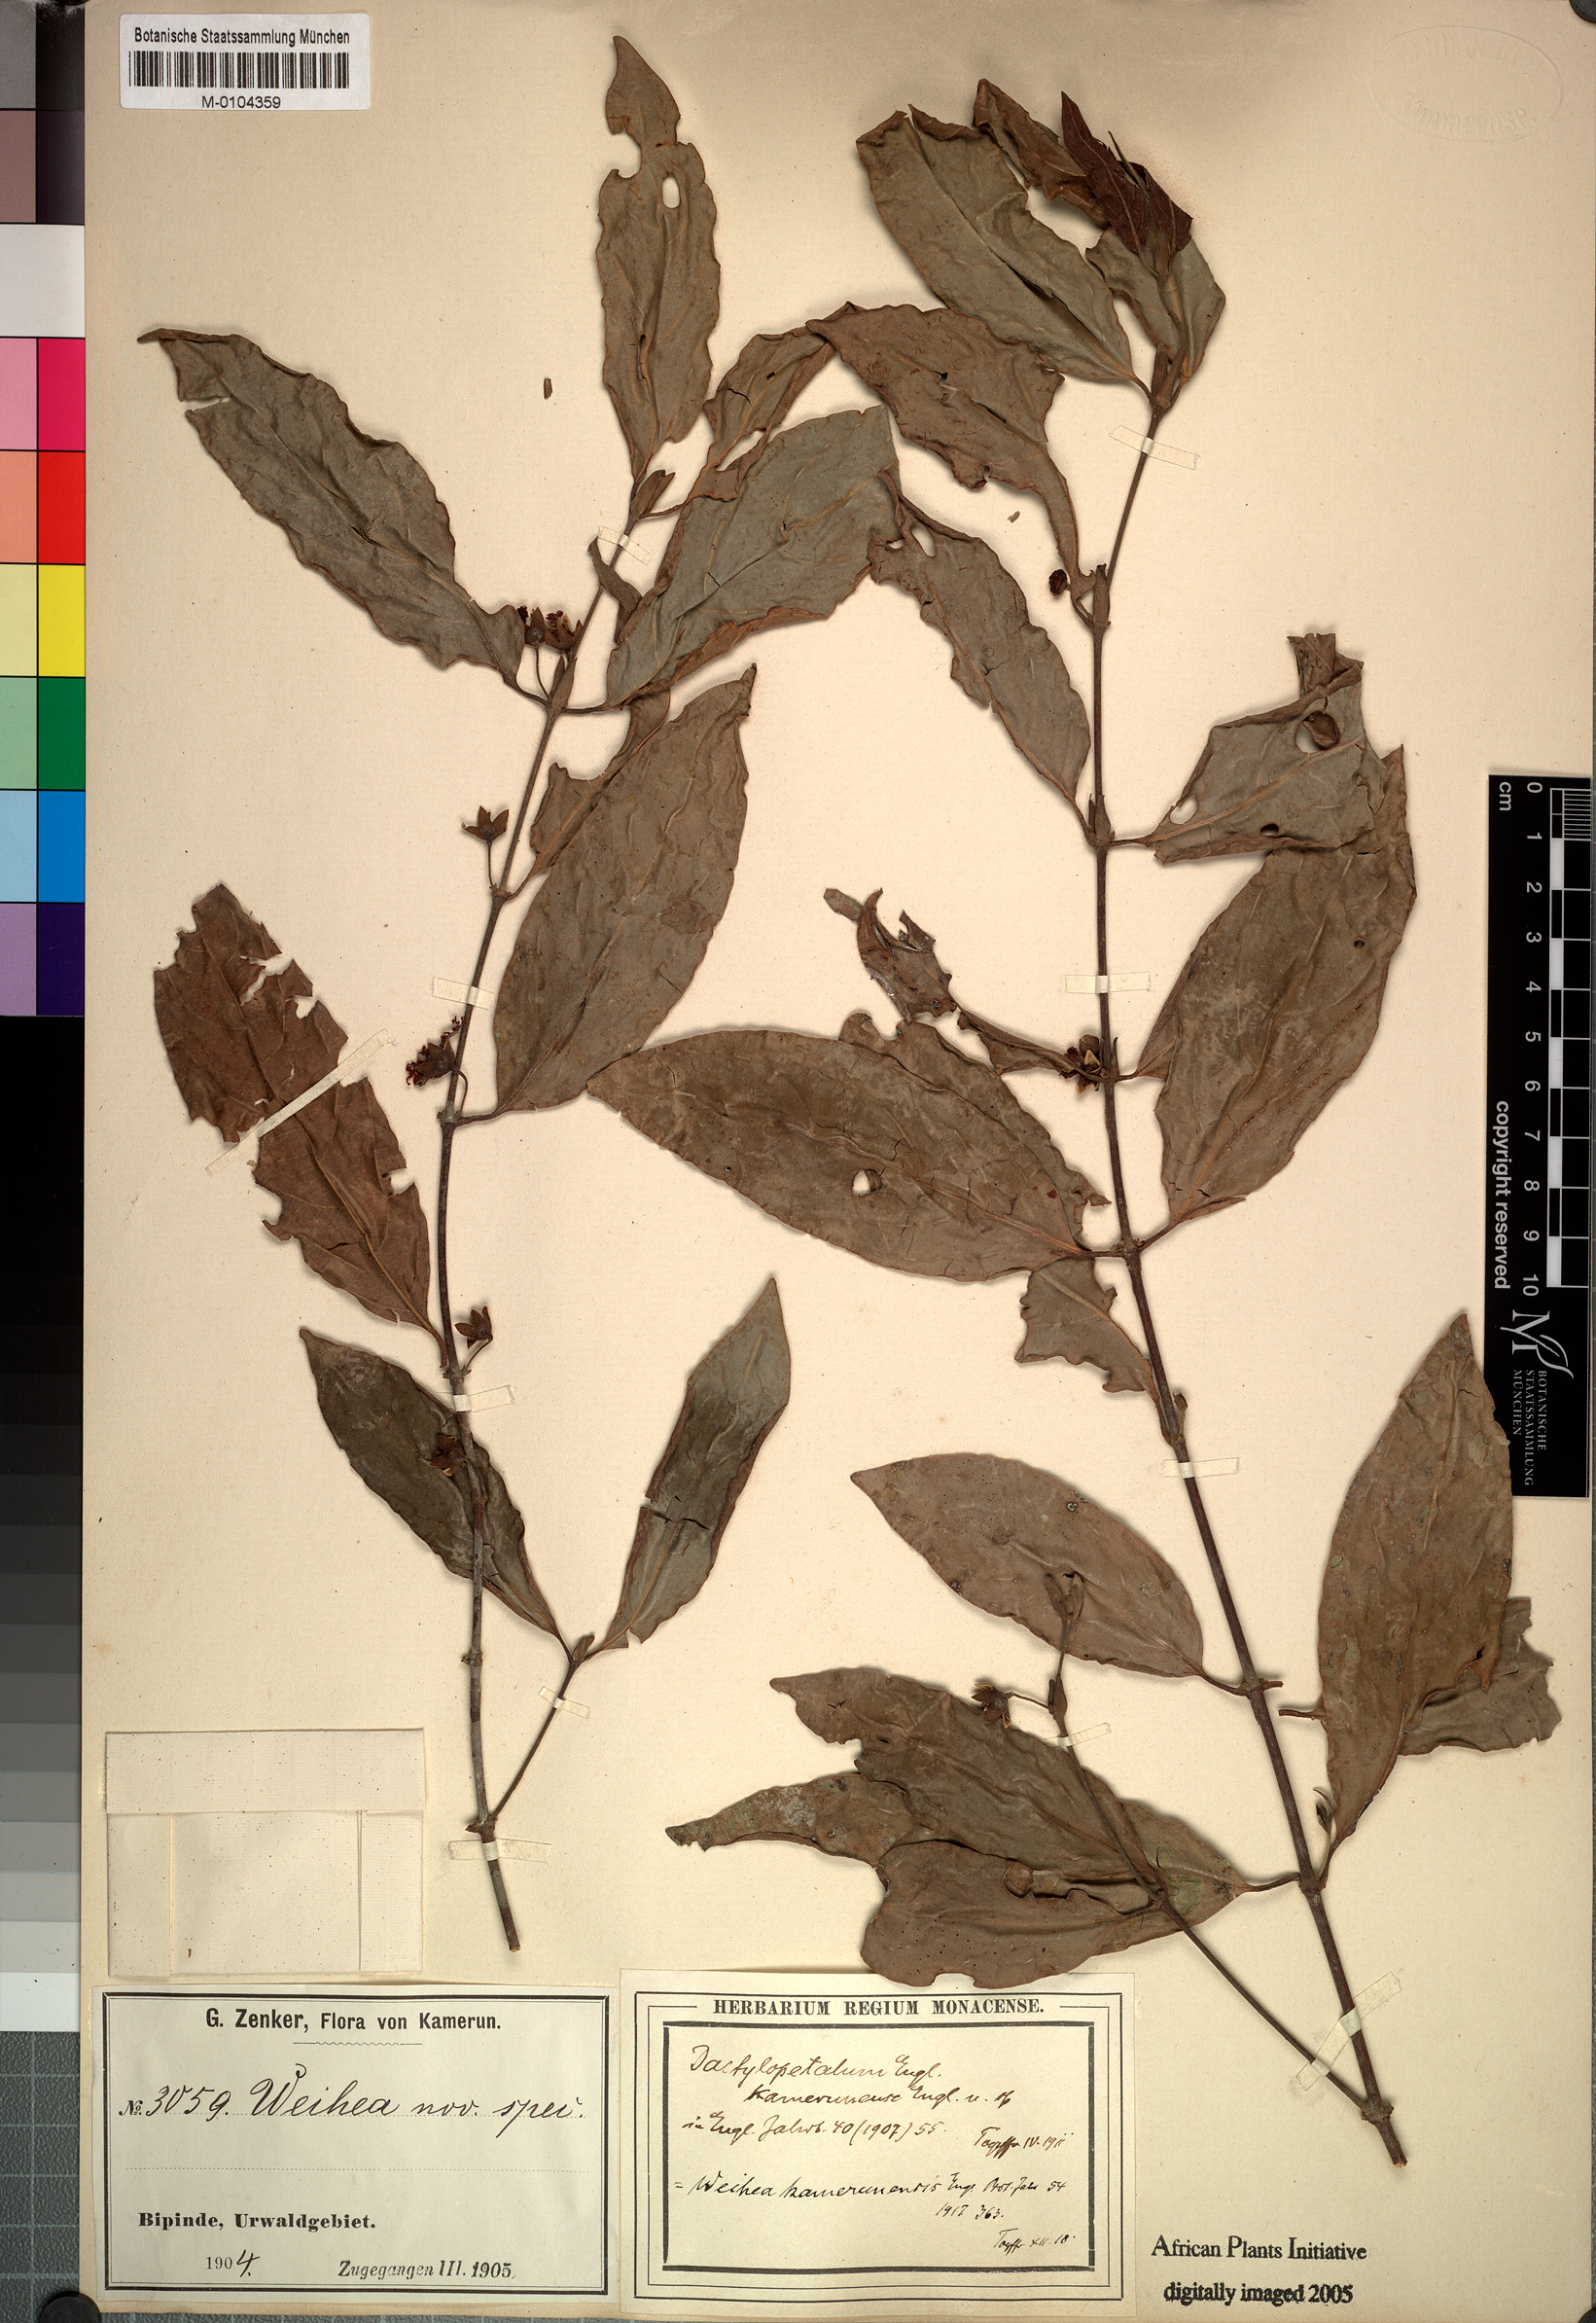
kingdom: Plantae
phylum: Tracheophyta
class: Magnoliopsida
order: Malpighiales
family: Rhizophoraceae
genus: Cassipourea
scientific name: Cassipourea schizocalyx
